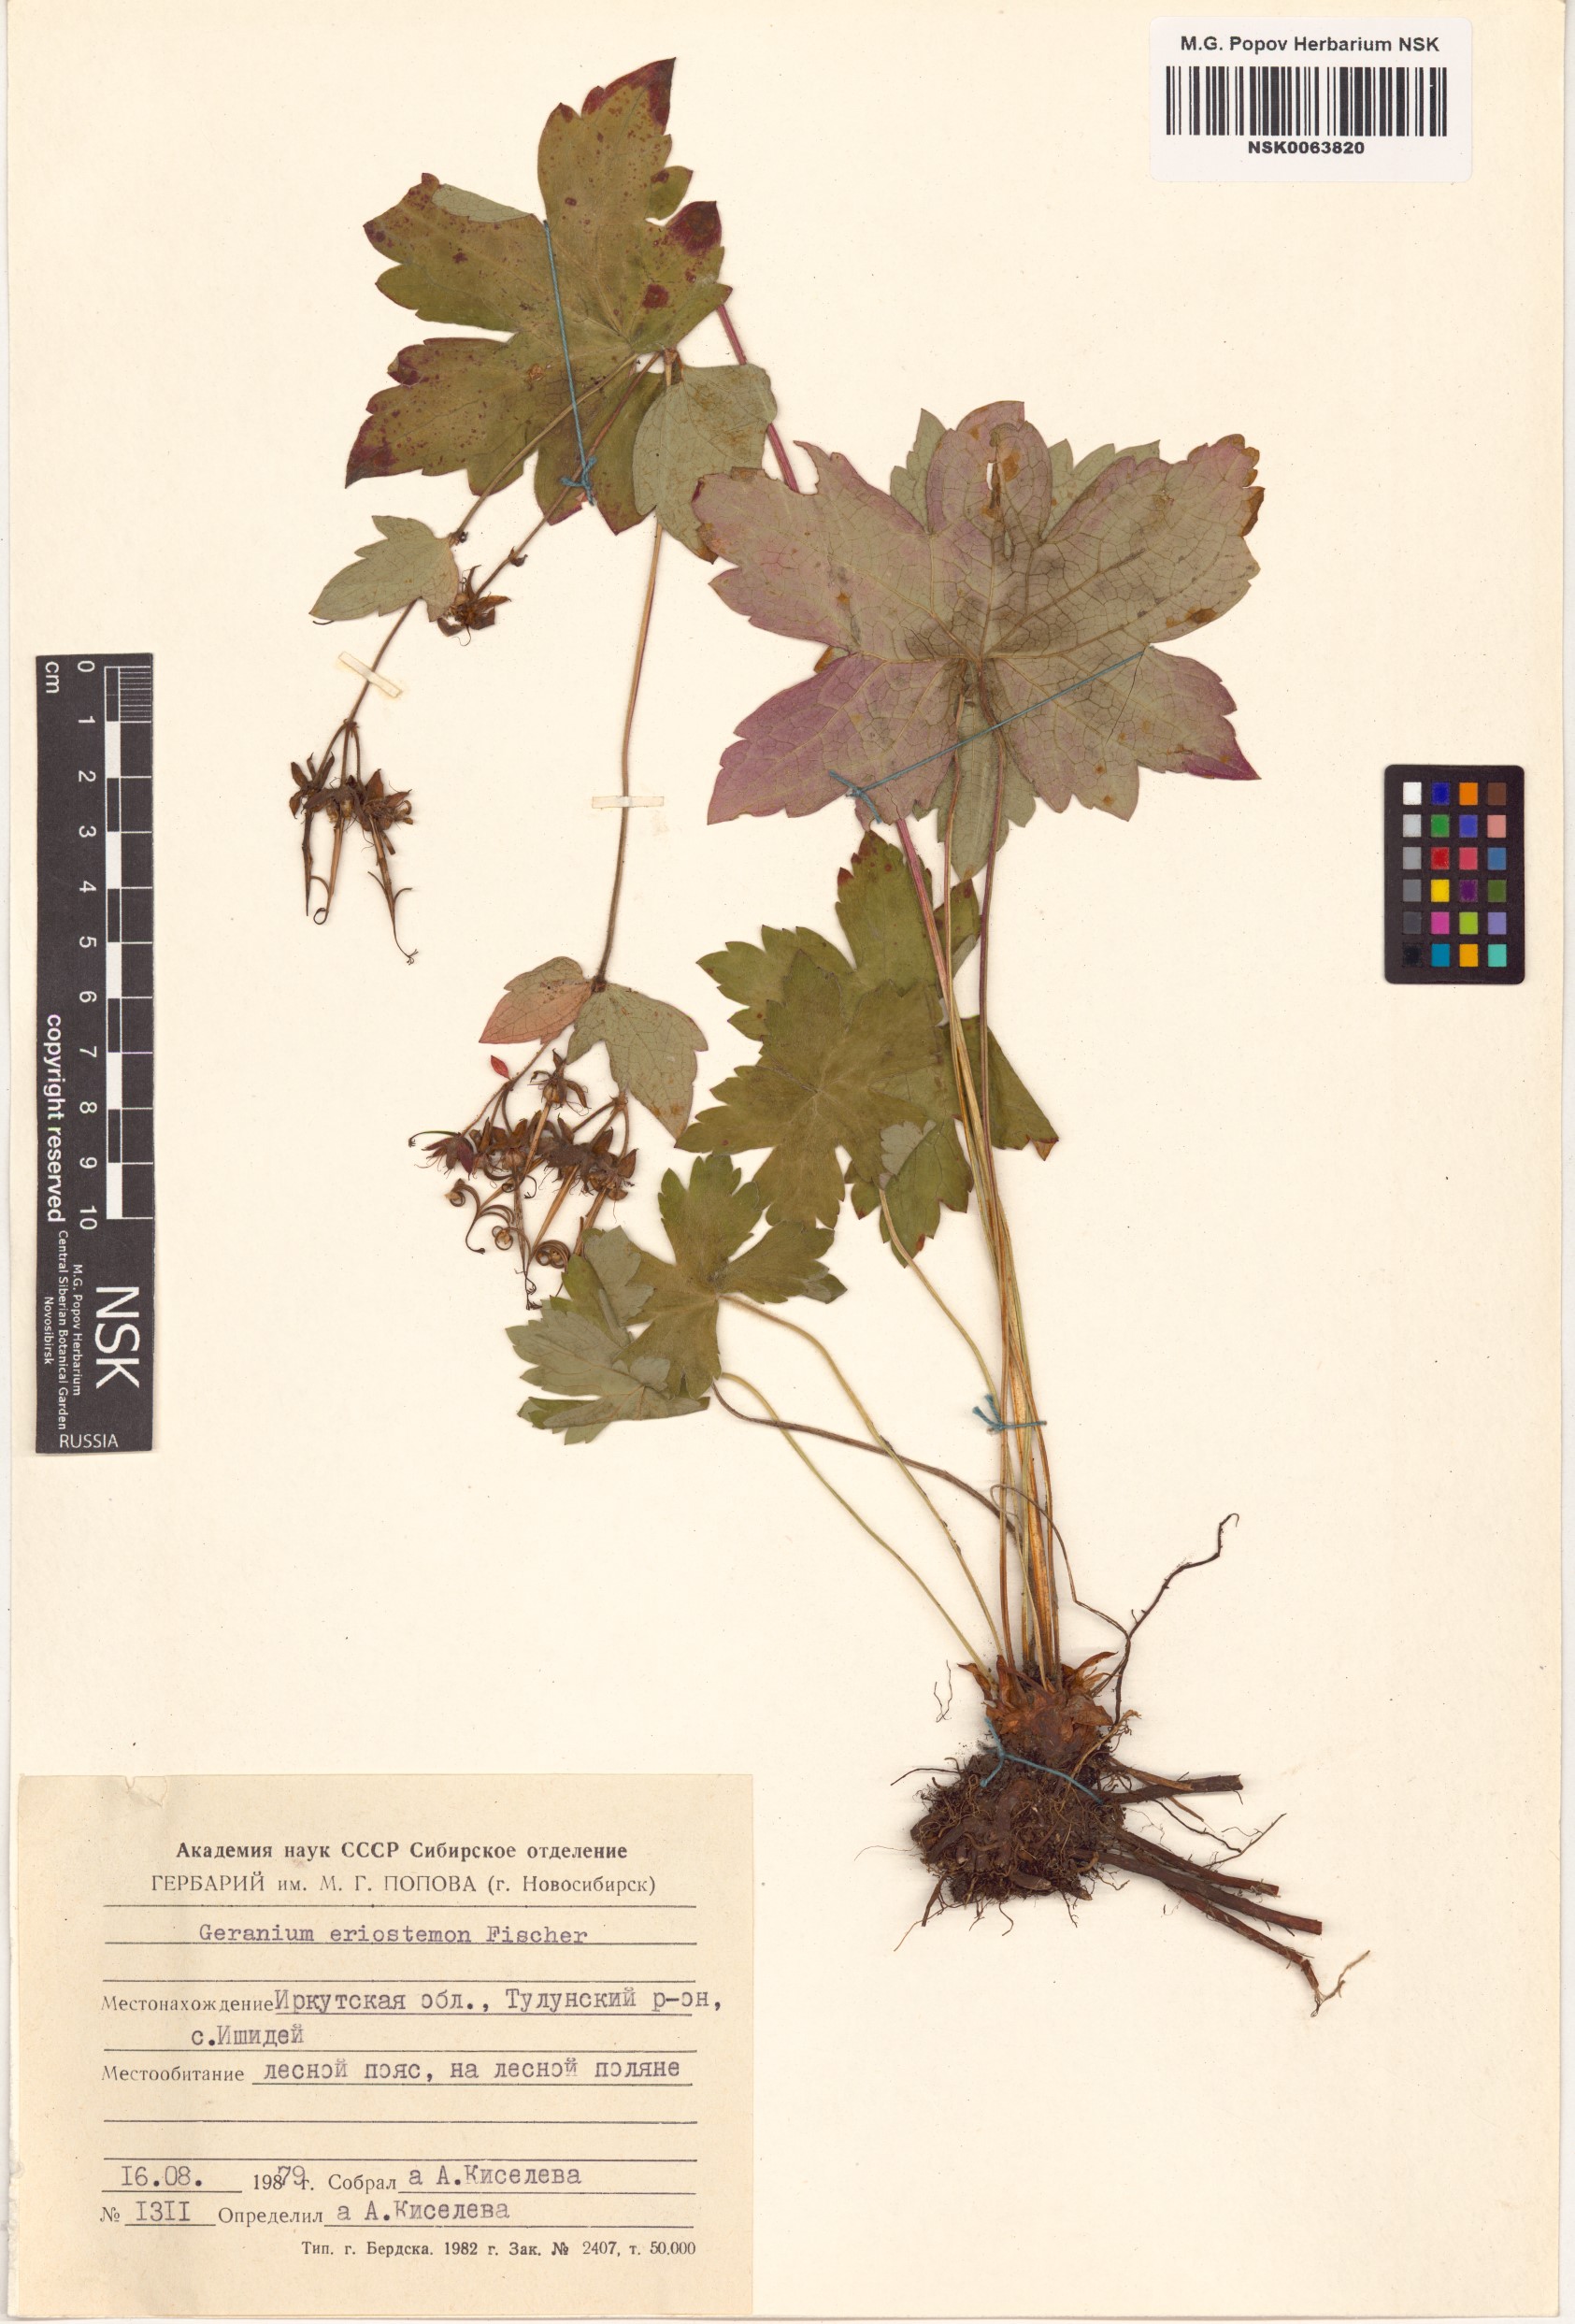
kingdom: Plantae
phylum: Tracheophyta
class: Magnoliopsida
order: Geraniales
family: Geraniaceae
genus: Geranium
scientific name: Geranium platyanthum
